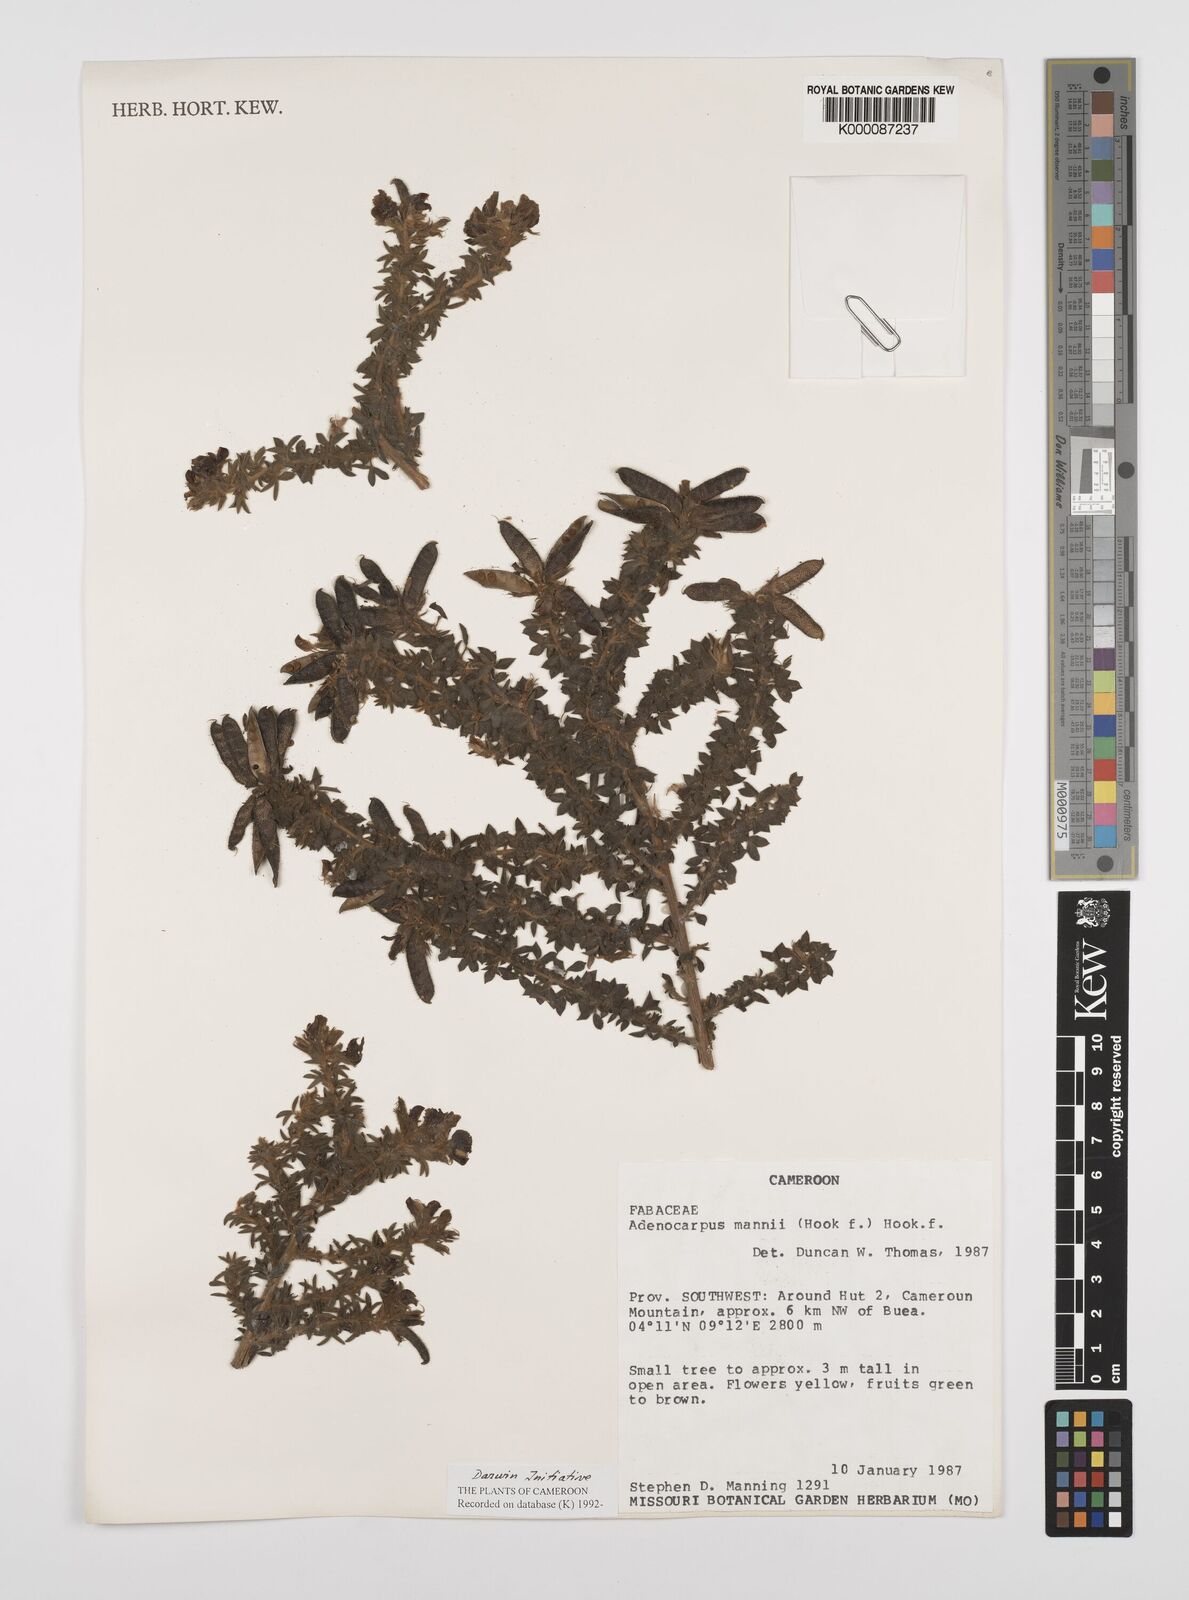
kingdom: Plantae
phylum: Tracheophyta
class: Magnoliopsida
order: Fabales
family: Fabaceae
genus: Adenocarpus
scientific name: Adenocarpus mannii
